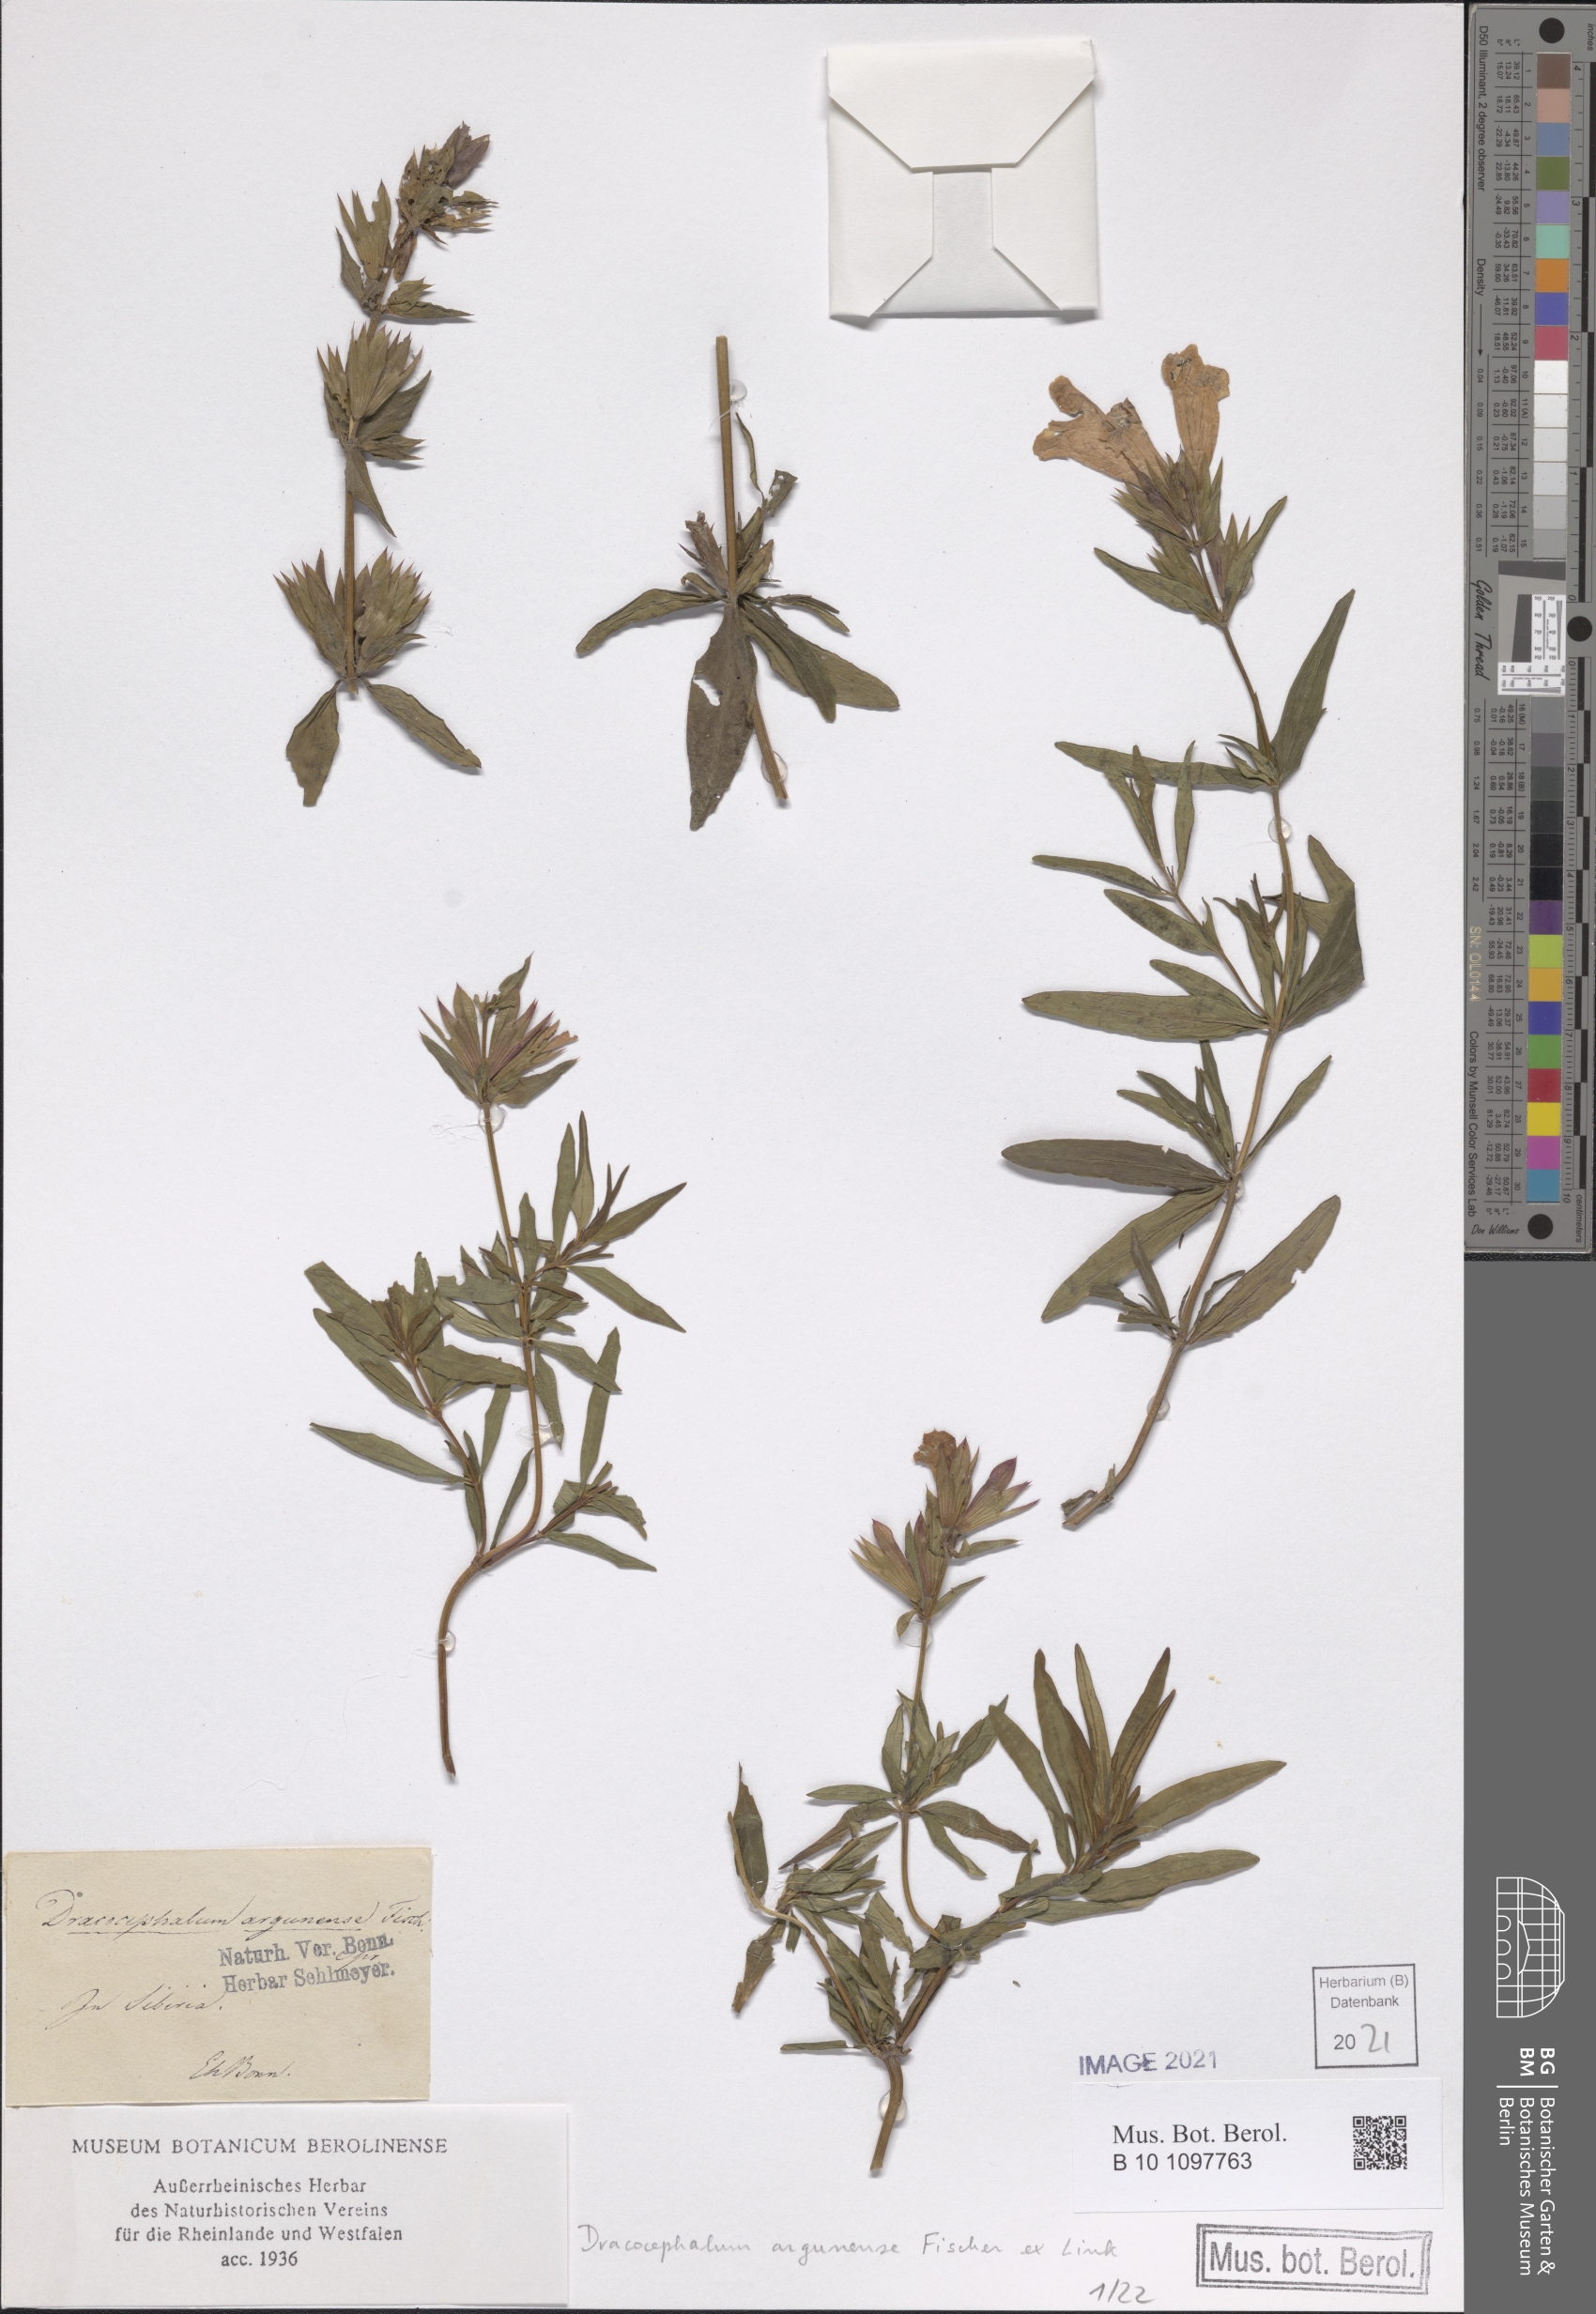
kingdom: Plantae
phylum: Tracheophyta
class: Magnoliopsida
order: Lamiales
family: Lamiaceae
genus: Dracocephalum
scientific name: Dracocephalum argunense
